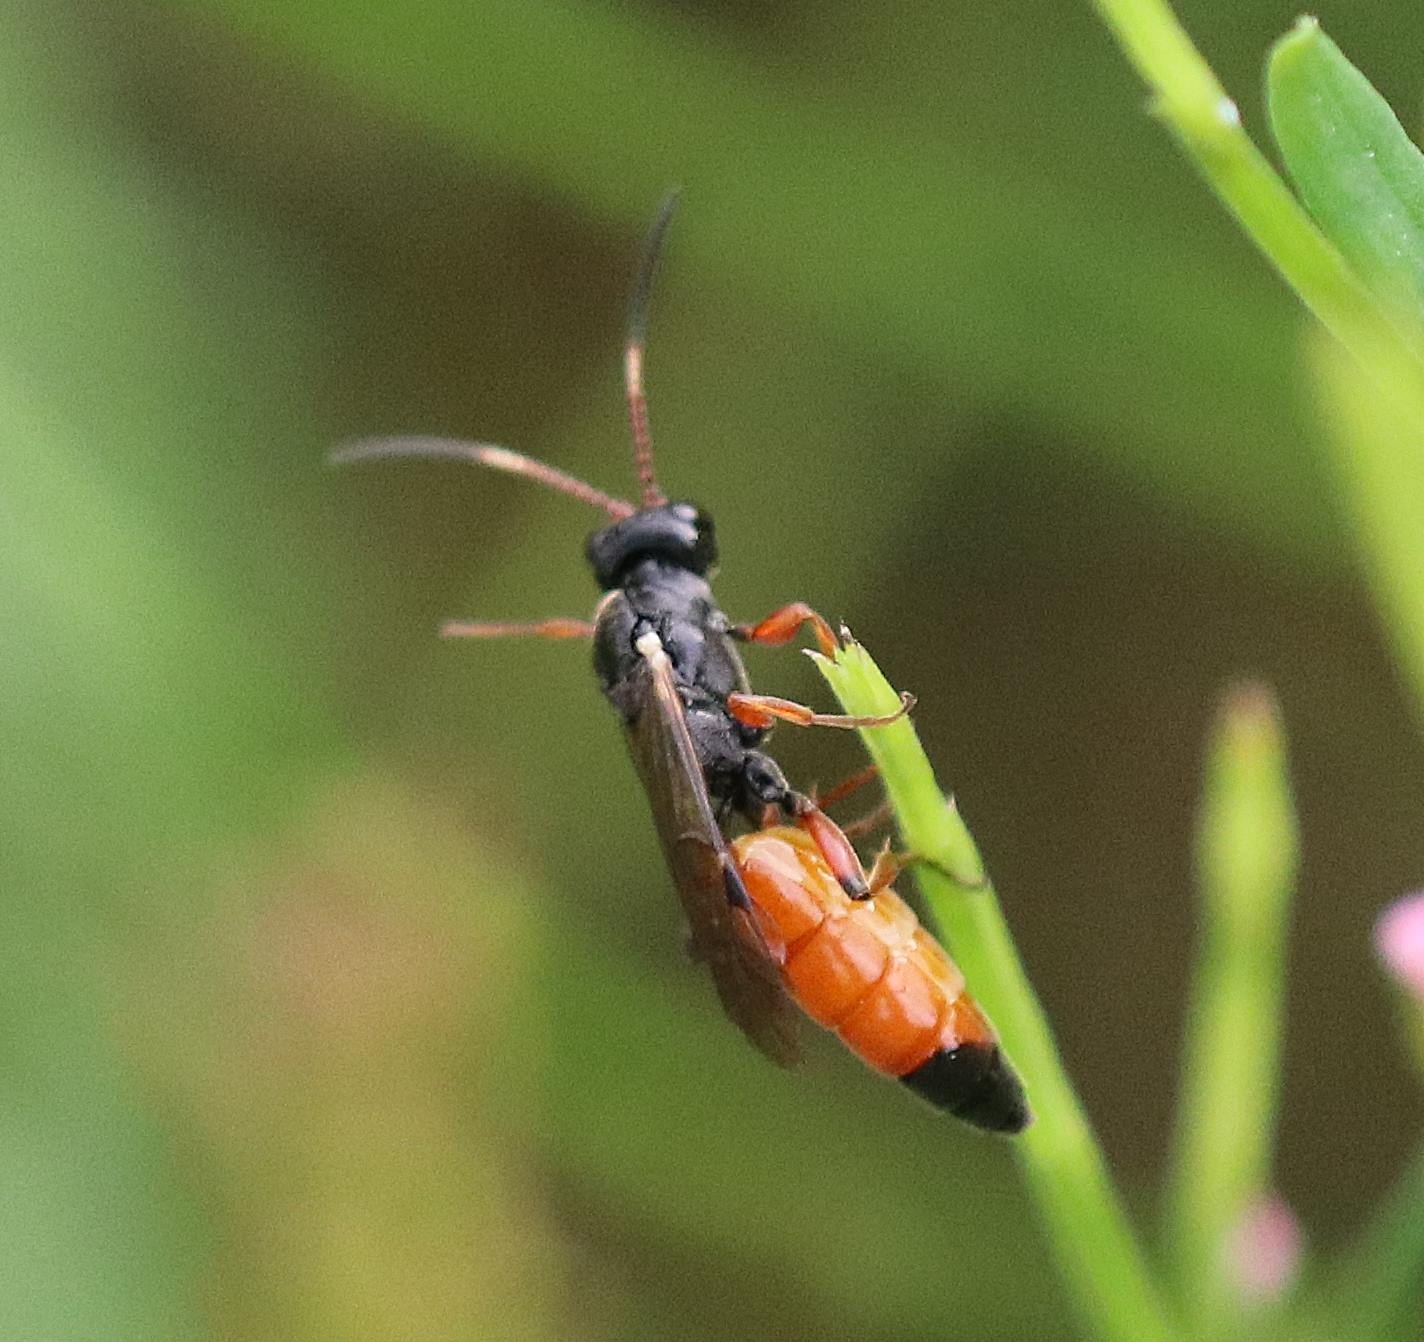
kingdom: Animalia
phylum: Arthropoda
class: Insecta
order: Hymenoptera
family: Ichneumonidae
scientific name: Ichneumonidae
